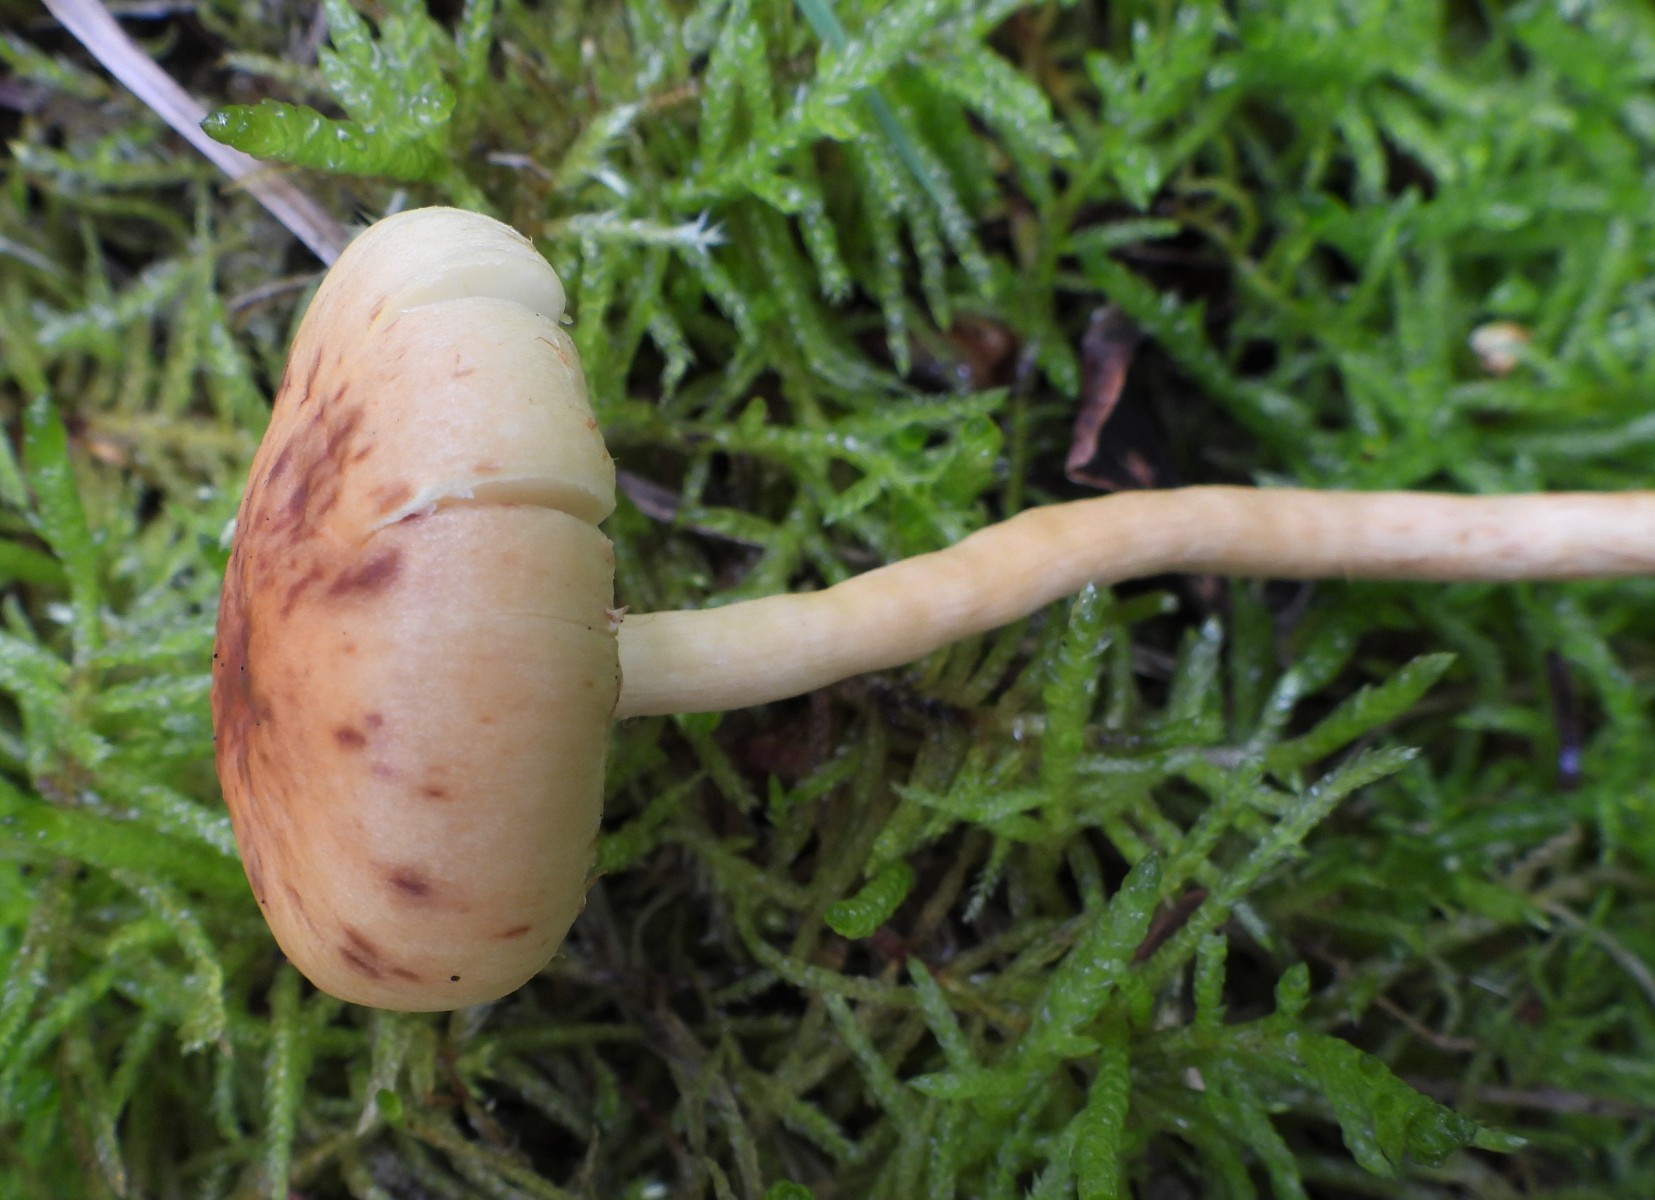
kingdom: Fungi
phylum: Basidiomycota
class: Agaricomycetes
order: Agaricales
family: Strophariaceae
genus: Pholiota
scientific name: Pholiota conissans
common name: pile-skælhat
